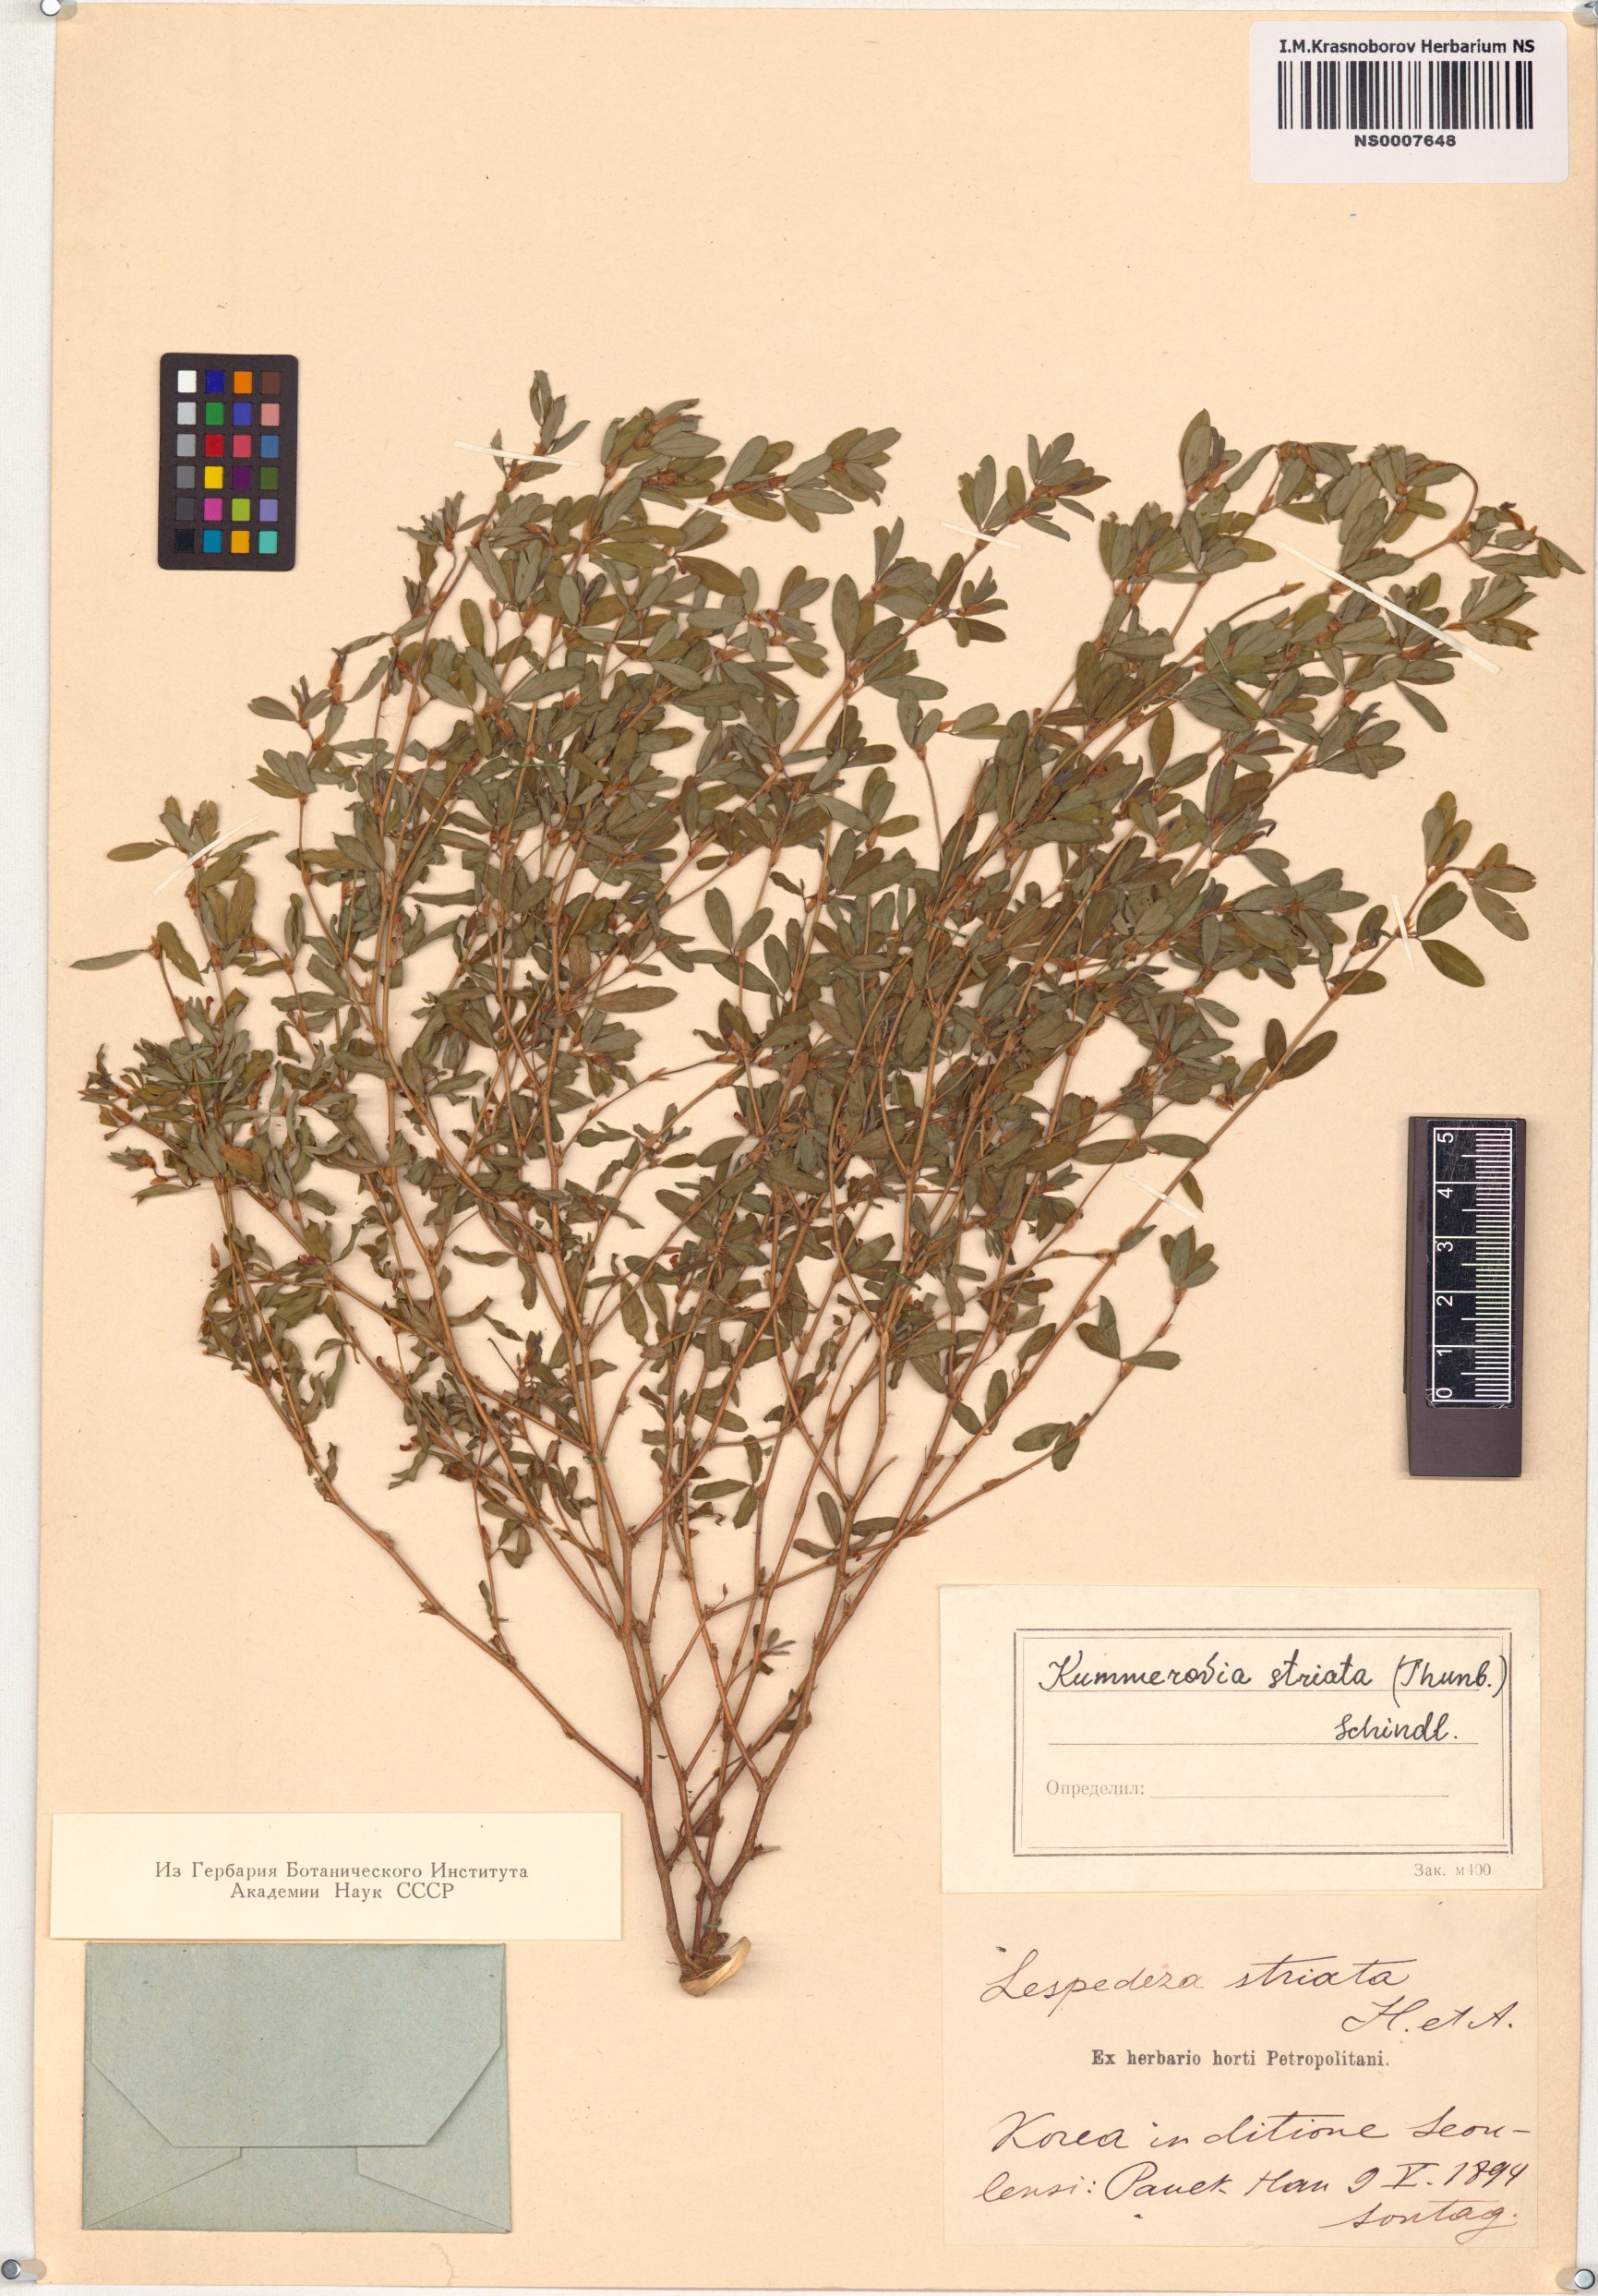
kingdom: Plantae
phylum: Tracheophyta
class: Magnoliopsida
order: Fabales
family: Fabaceae
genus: Kummerowia
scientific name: Kummerowia striata
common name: Japanese clover
